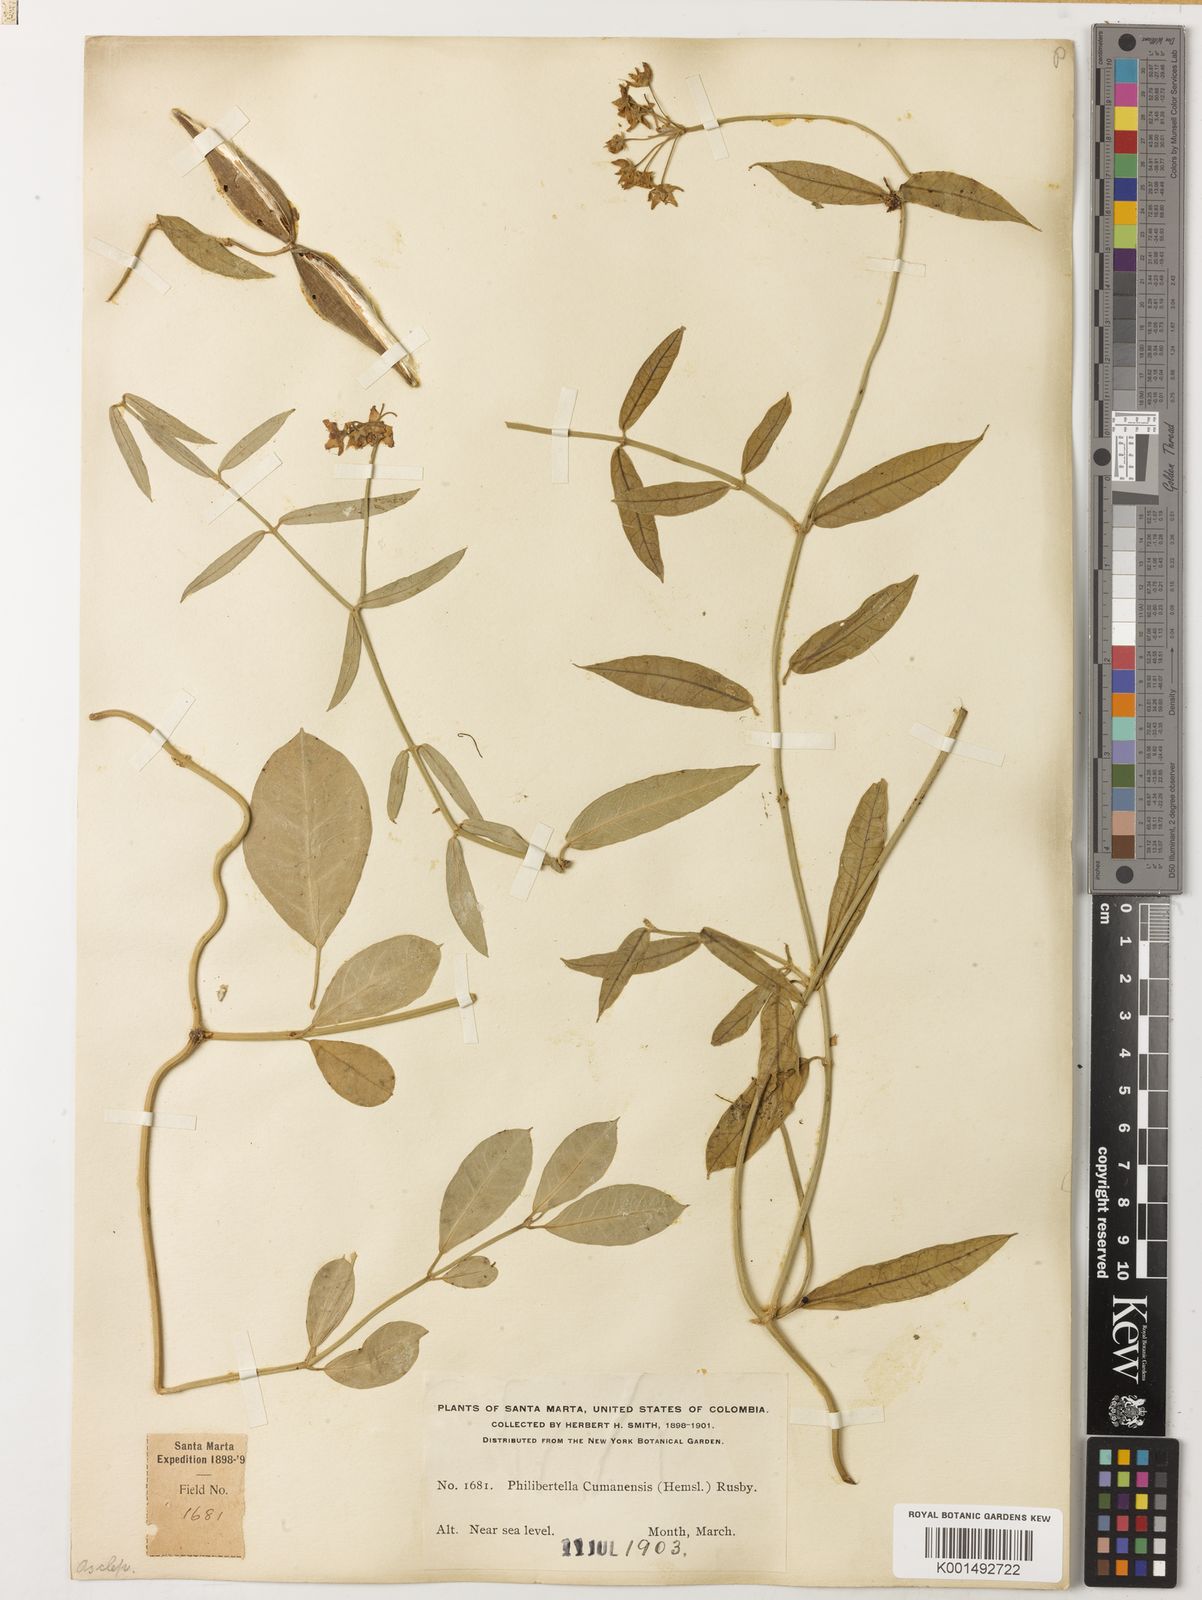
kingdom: Plantae
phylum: Tracheophyta
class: Magnoliopsida
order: Gentianales
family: Apocynaceae
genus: Funastrum
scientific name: Funastrum clausum
